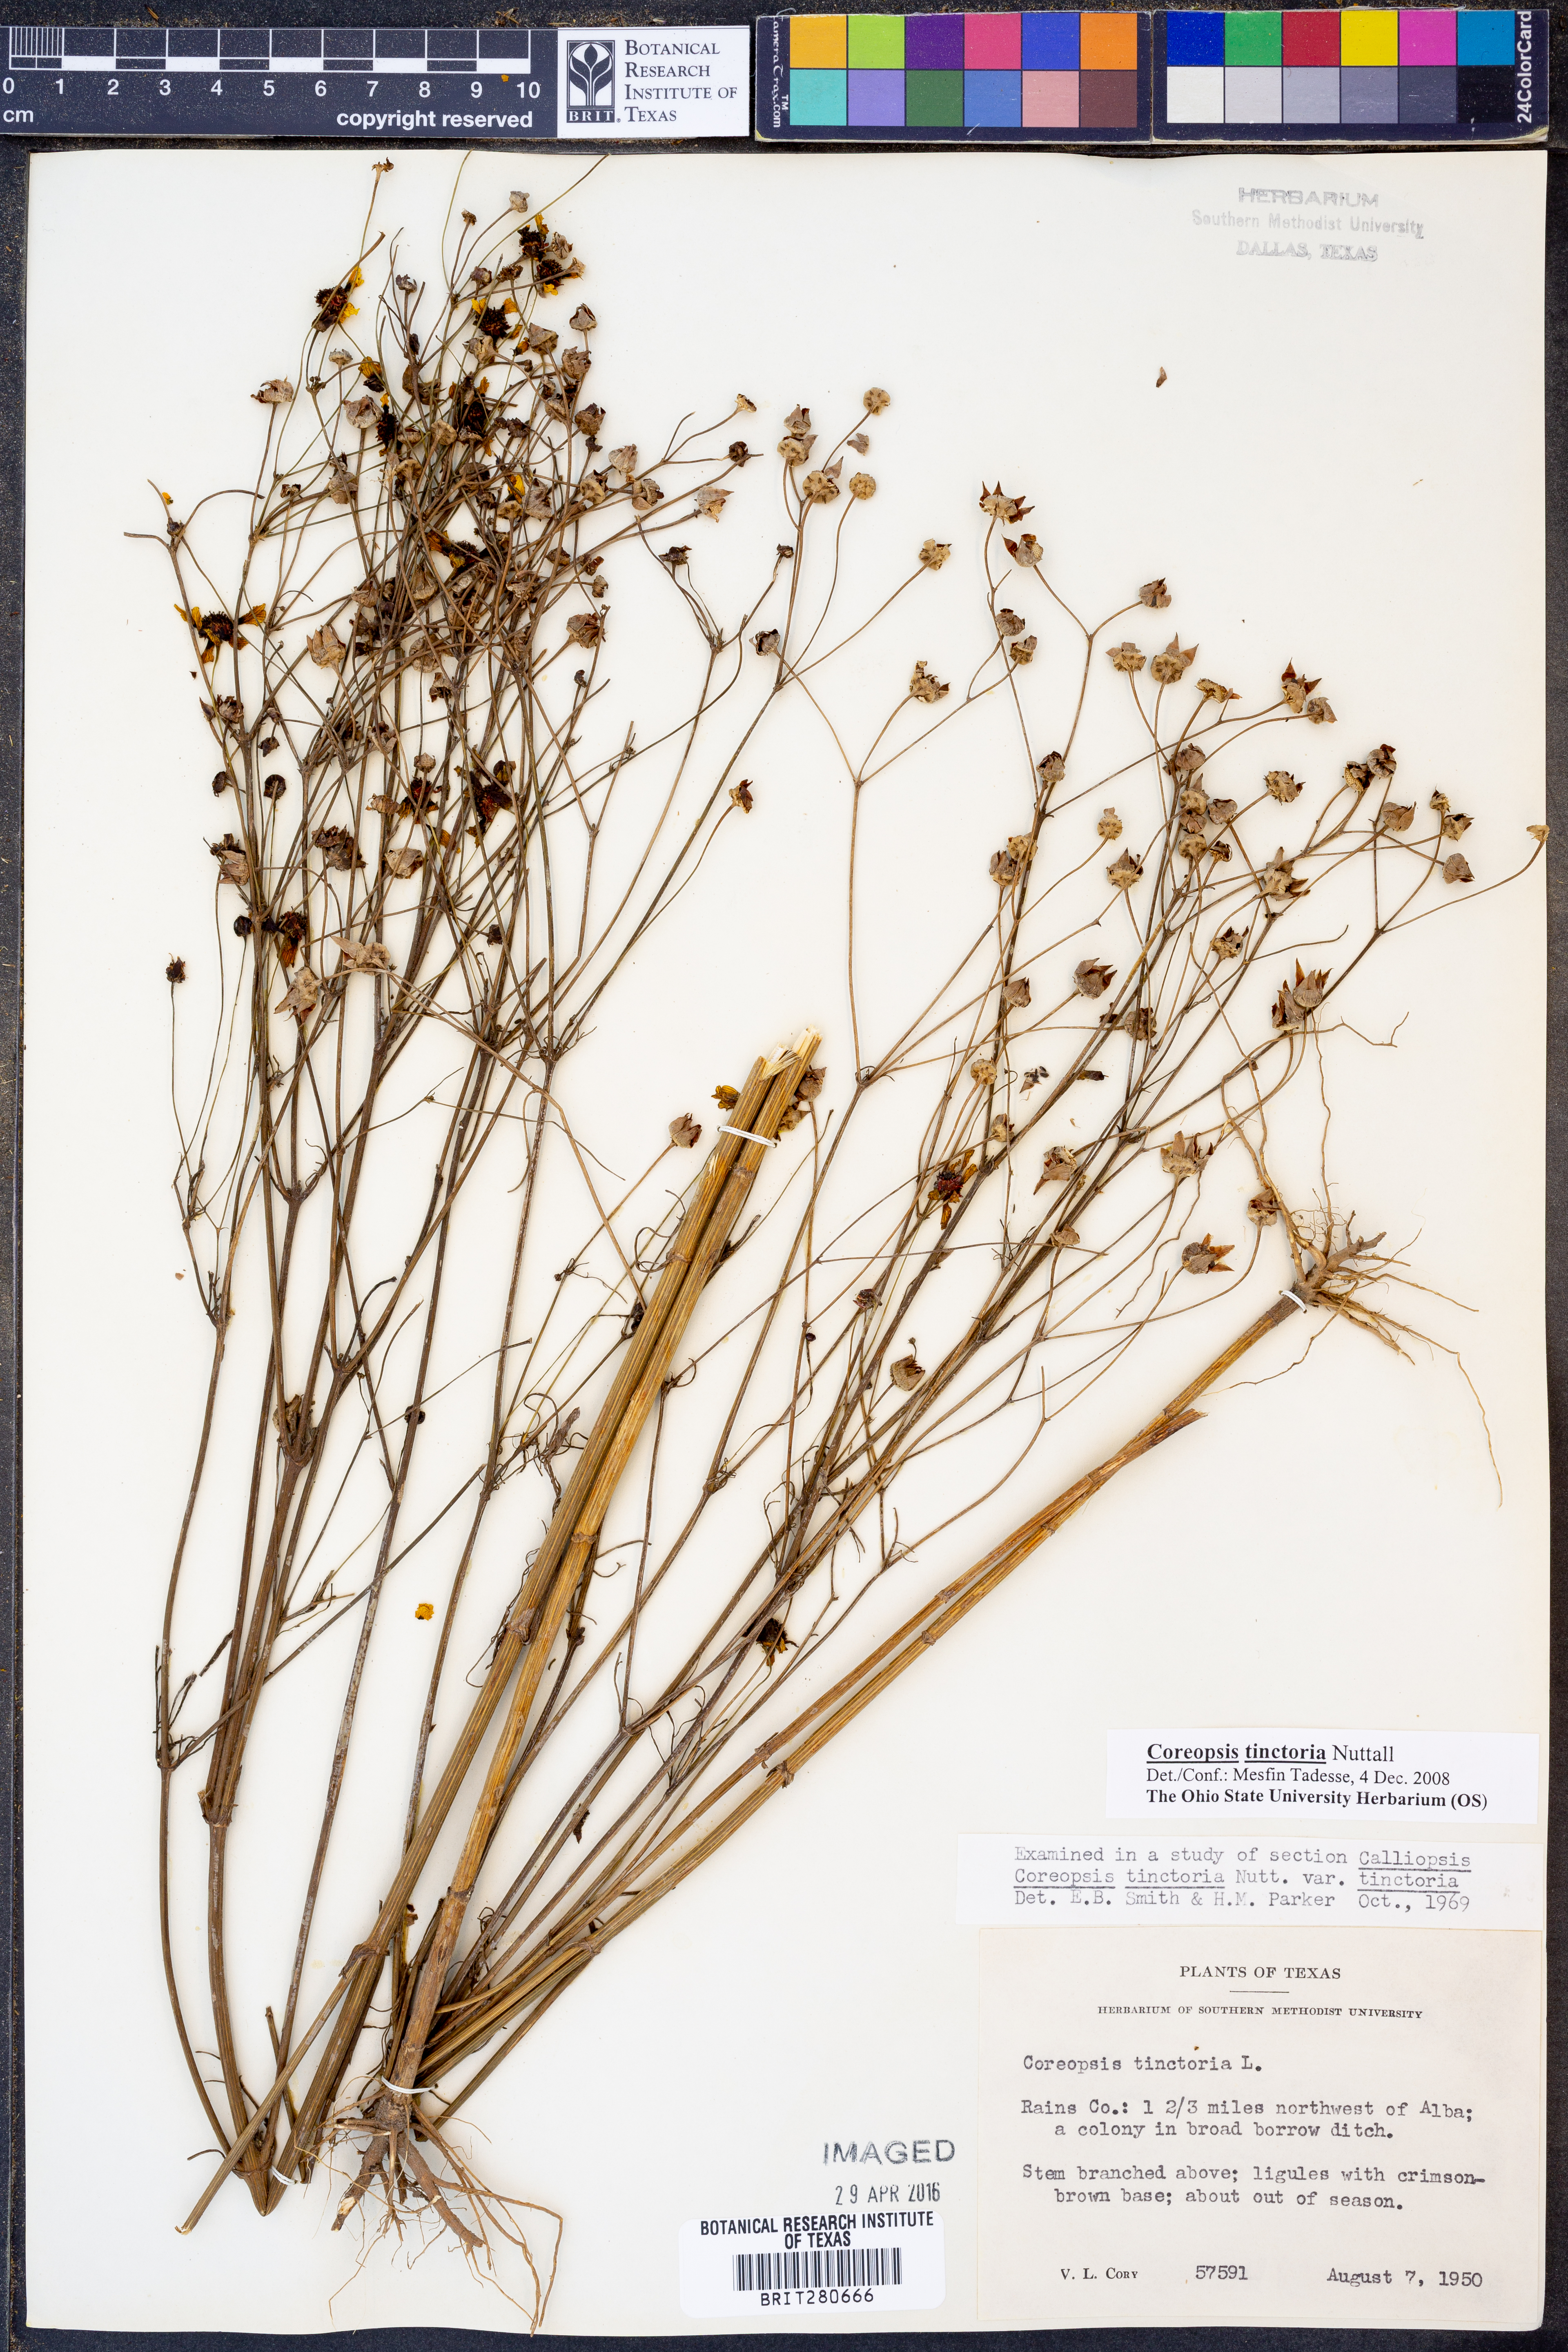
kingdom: Plantae
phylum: Tracheophyta
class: Magnoliopsida
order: Asterales
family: Asteraceae
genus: Coreopsis
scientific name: Coreopsis tinctoria
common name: Garden tickseed
